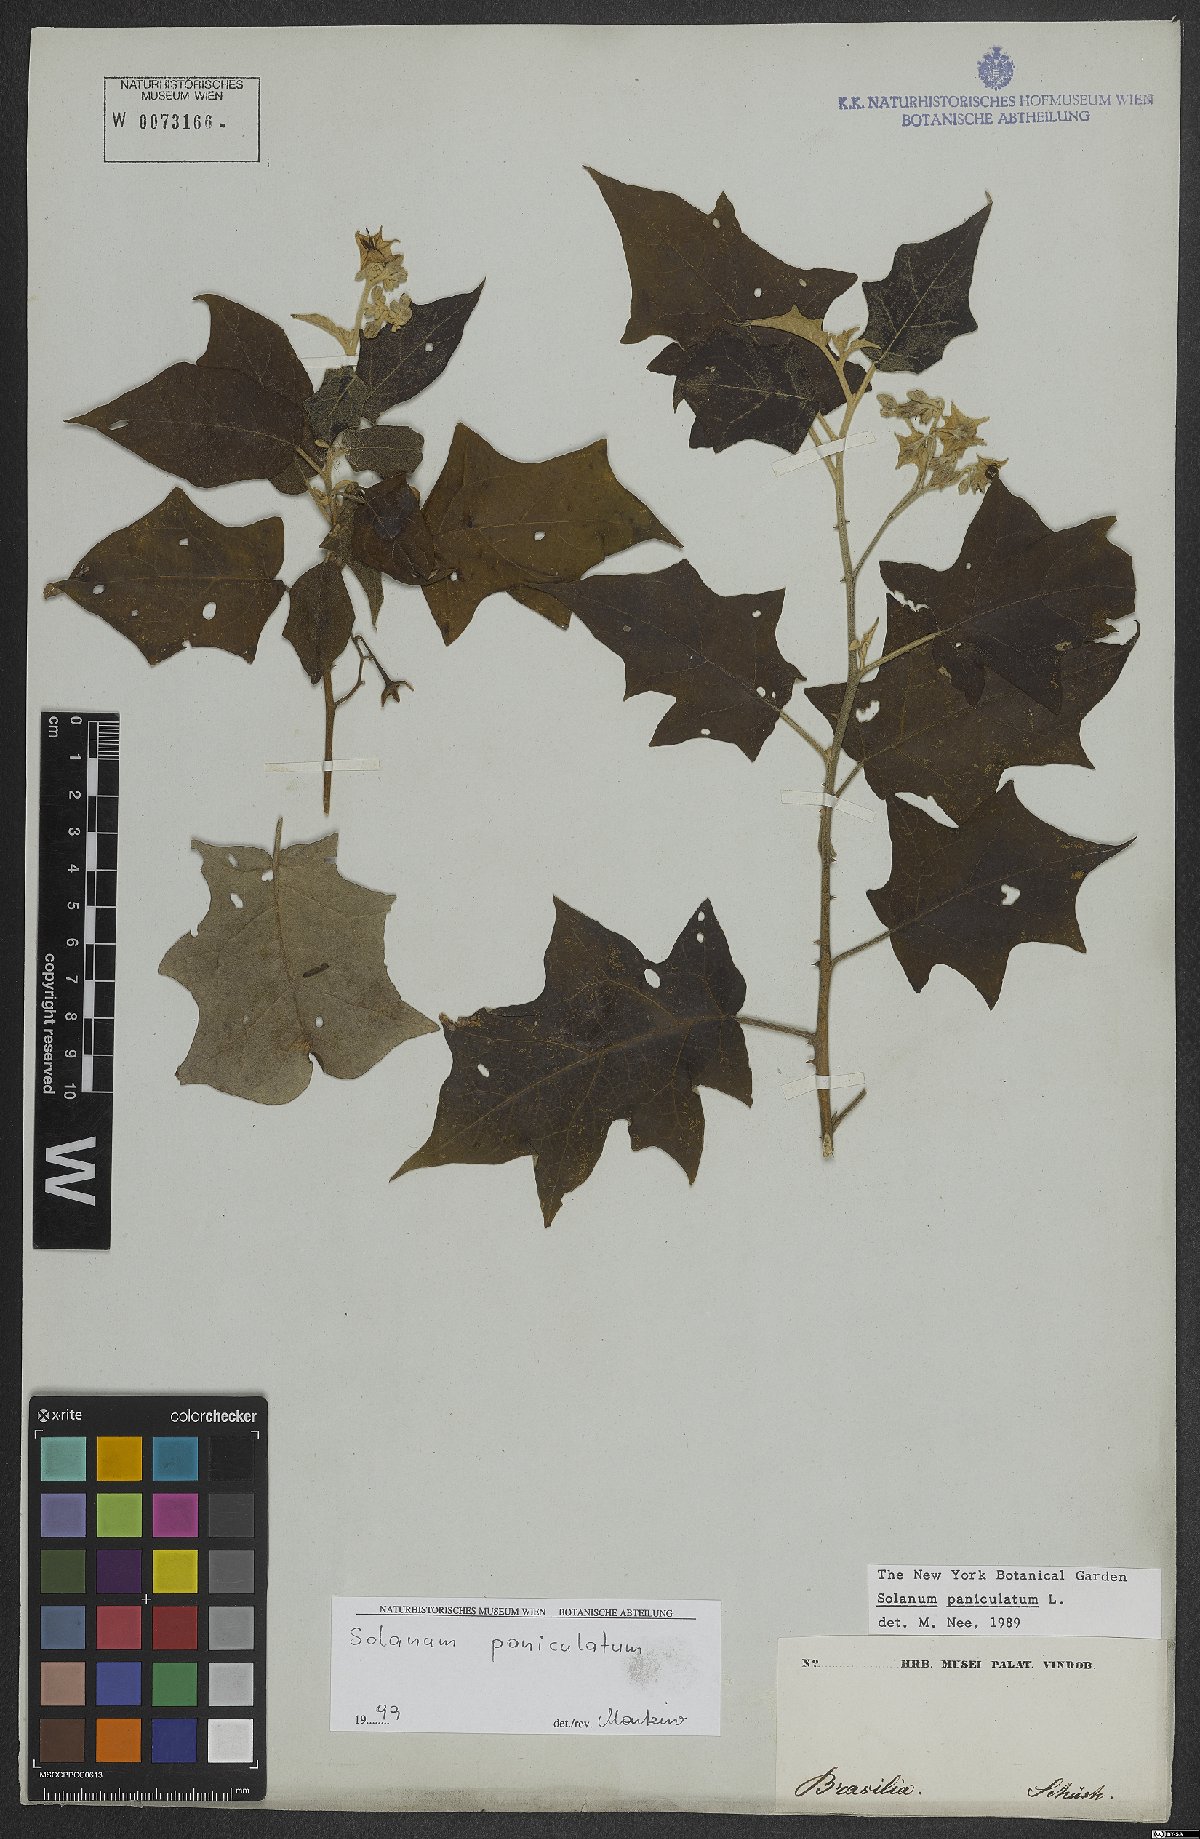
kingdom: Plantae
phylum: Tracheophyta
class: Magnoliopsida
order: Solanales
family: Solanaceae
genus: Solanum
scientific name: Solanum paniculatum
